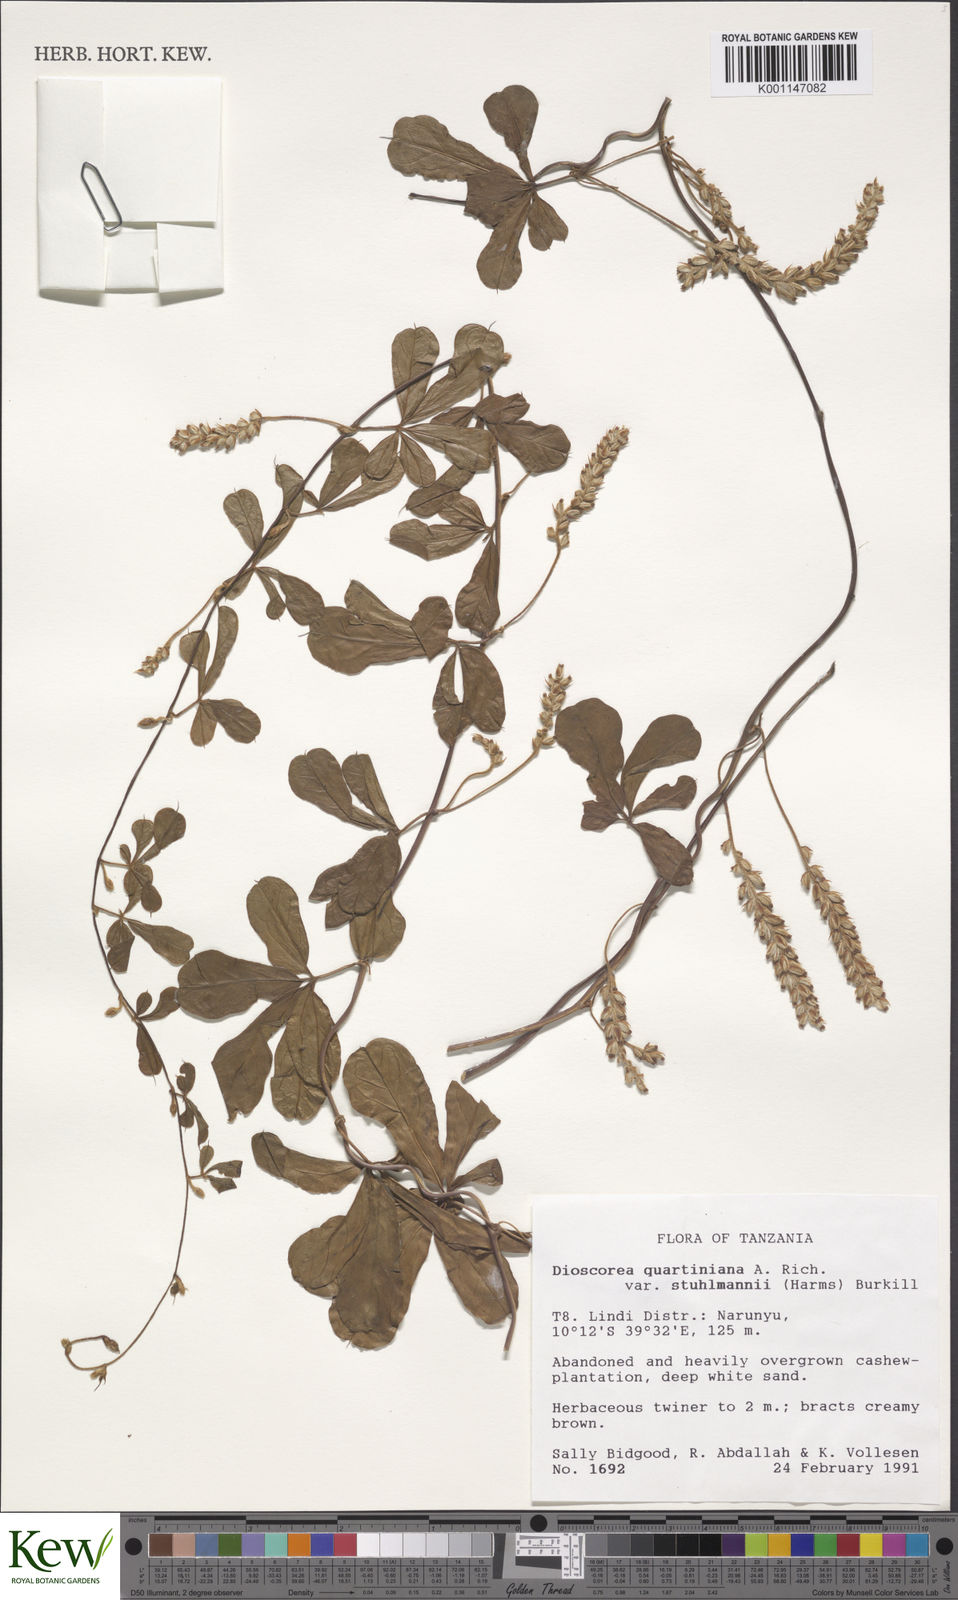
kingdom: Plantae
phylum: Tracheophyta
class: Liliopsida
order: Dioscoreales
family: Dioscoreaceae
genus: Dioscorea
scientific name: Dioscorea quartiniana
